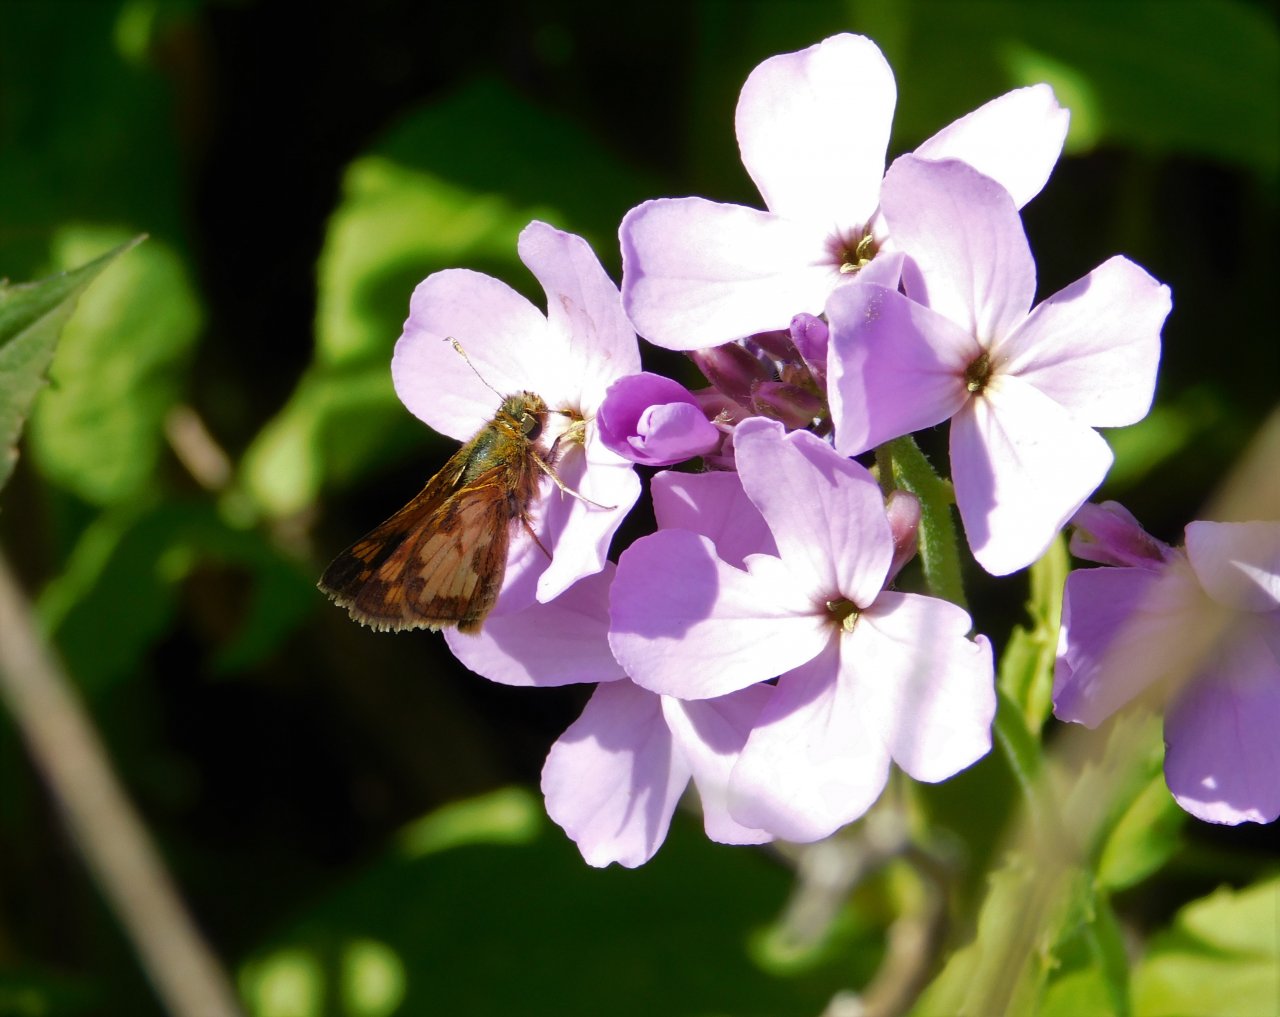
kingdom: Animalia
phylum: Arthropoda
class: Insecta
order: Lepidoptera
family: Hesperiidae
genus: Polites
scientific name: Polites coras
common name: Peck's Skipper
